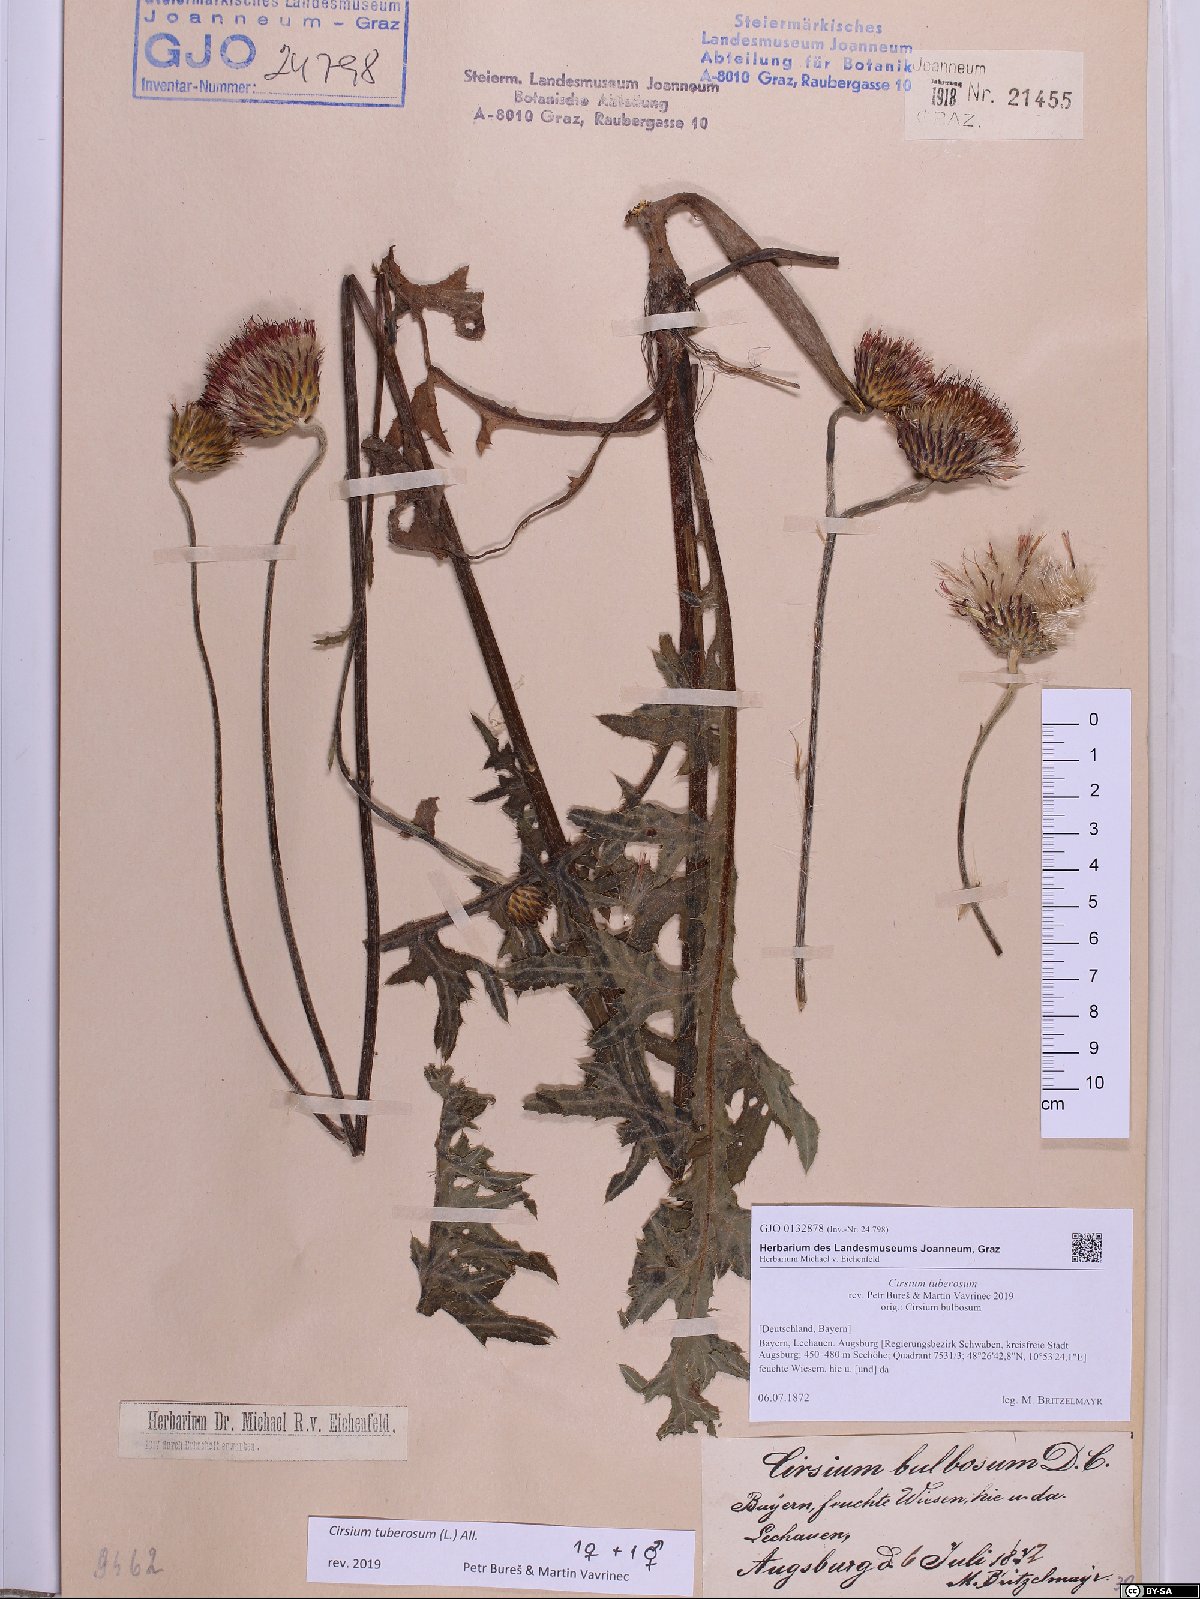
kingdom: Plantae
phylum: Tracheophyta
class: Magnoliopsida
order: Asterales
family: Asteraceae
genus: Cirsium
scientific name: Cirsium tuberosum
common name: Tuberous thistle
